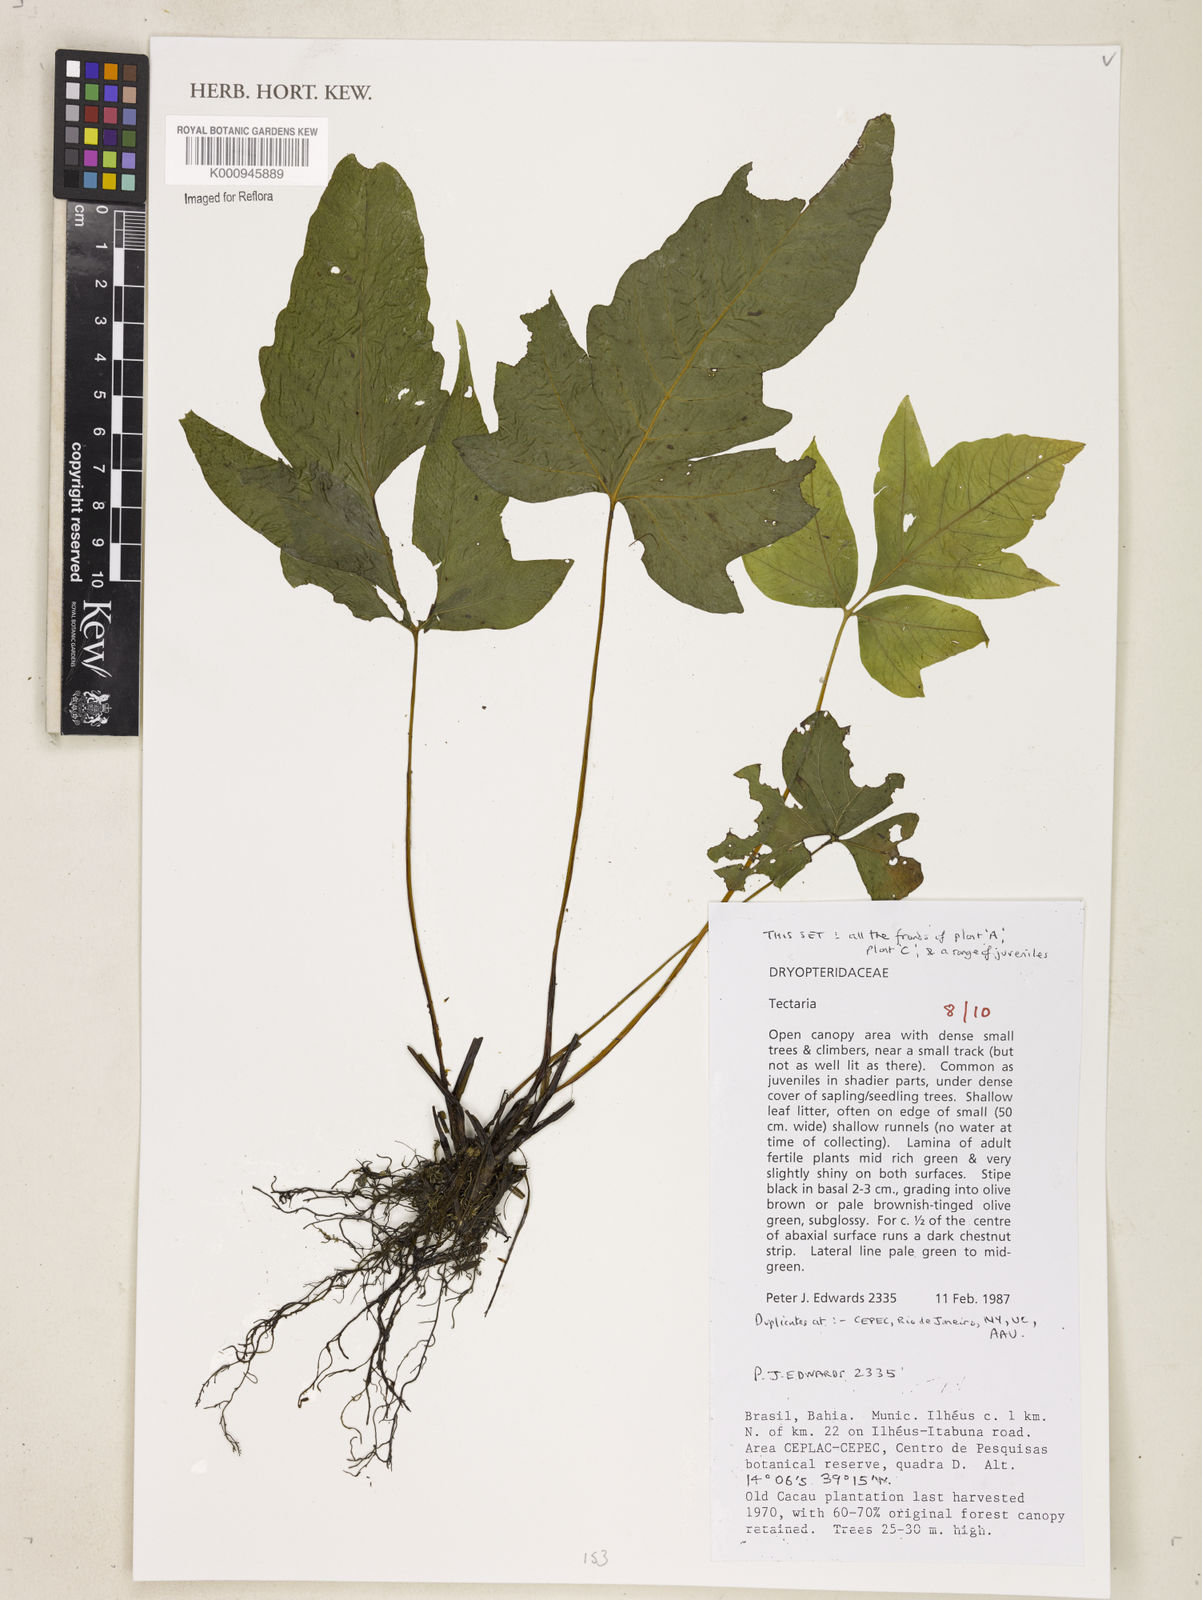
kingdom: Plantae
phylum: Tracheophyta
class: Polypodiopsida
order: Polypodiales
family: Tectariaceae
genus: Tectaria
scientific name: Tectaria
